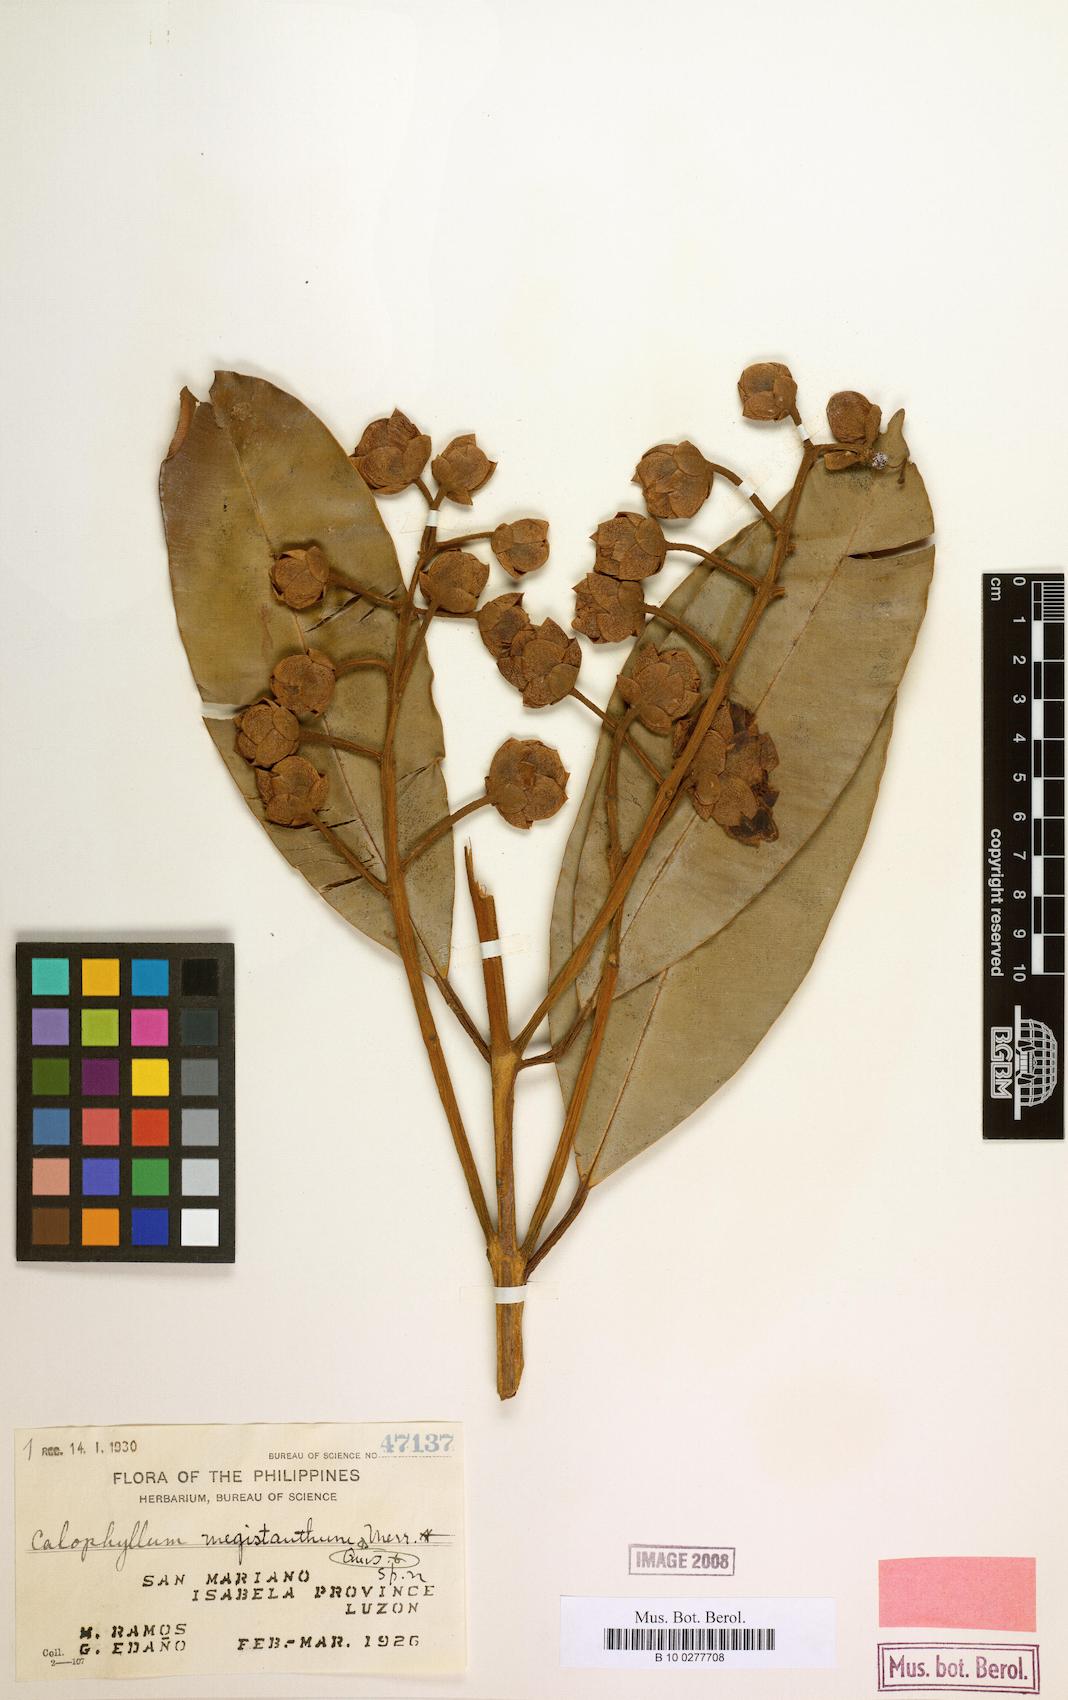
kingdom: Plantae
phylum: Tracheophyta
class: Magnoliopsida
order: Malpighiales
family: Calophyllaceae
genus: Calophyllum
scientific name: Calophyllum blancoi
